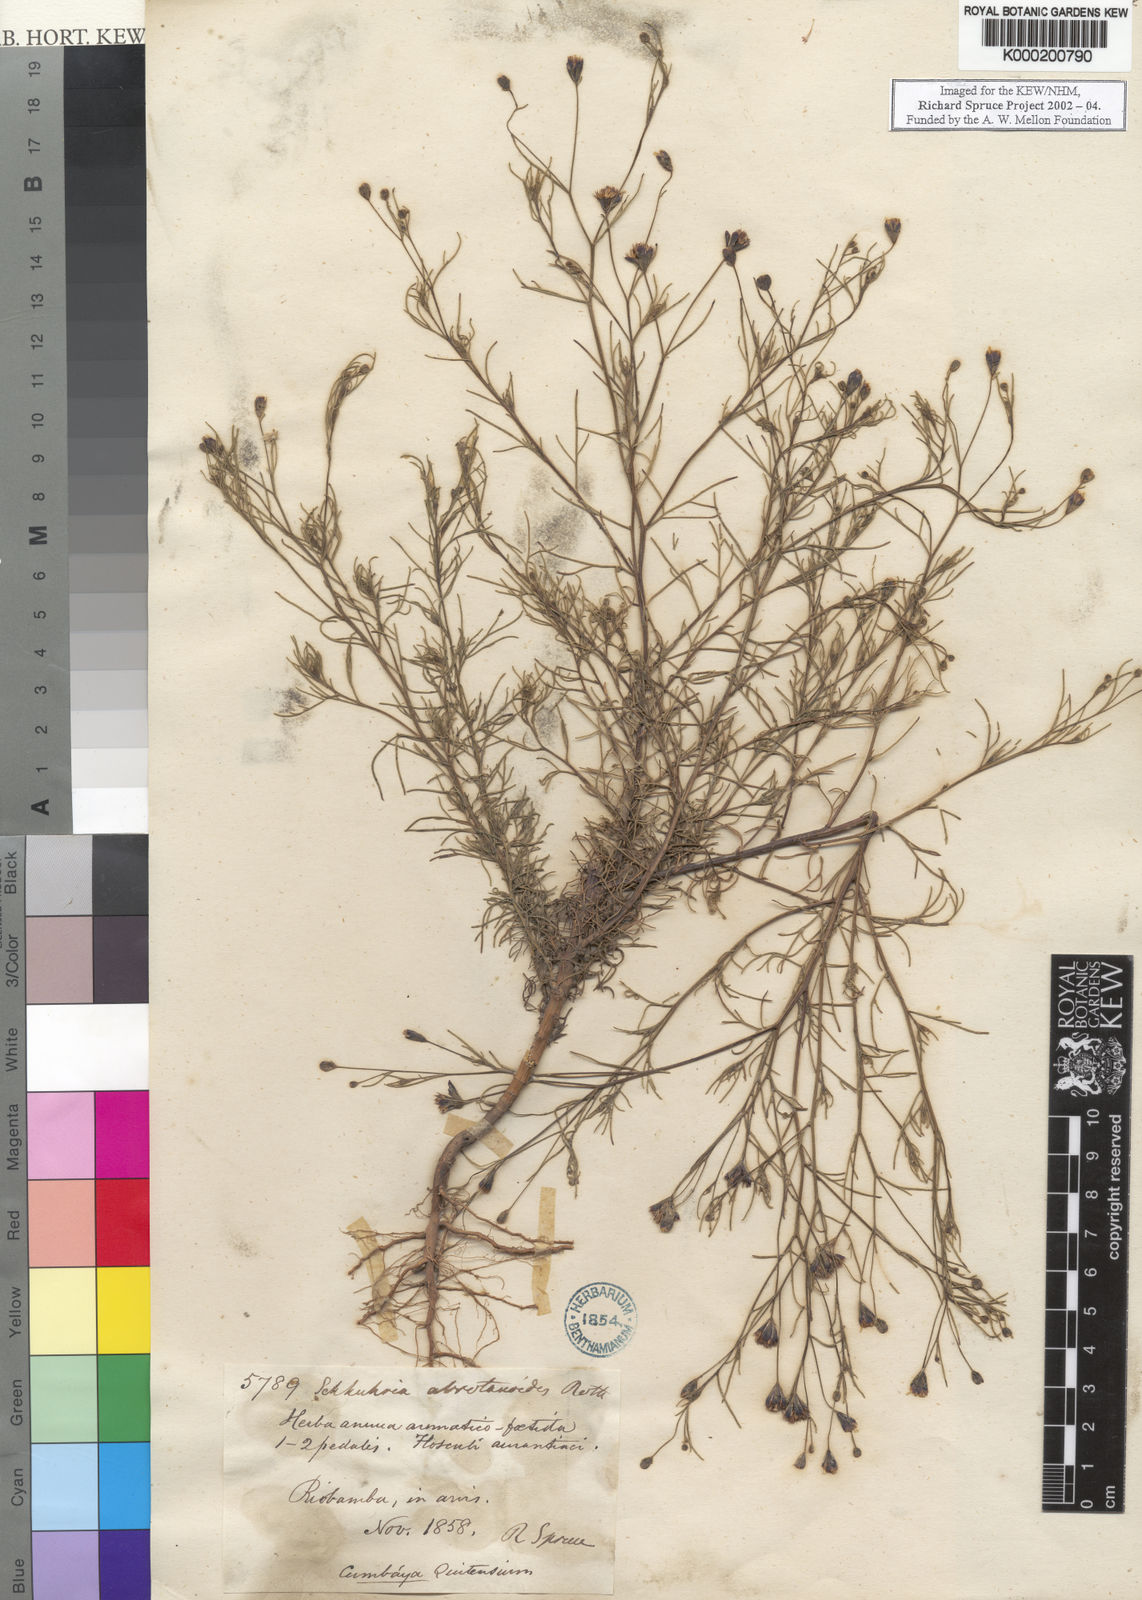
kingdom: Plantae
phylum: Tracheophyta
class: Magnoliopsida
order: Asterales
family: Asteraceae
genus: Schkuhria
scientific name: Schkuhria pinnata
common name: Dwarf marigold
